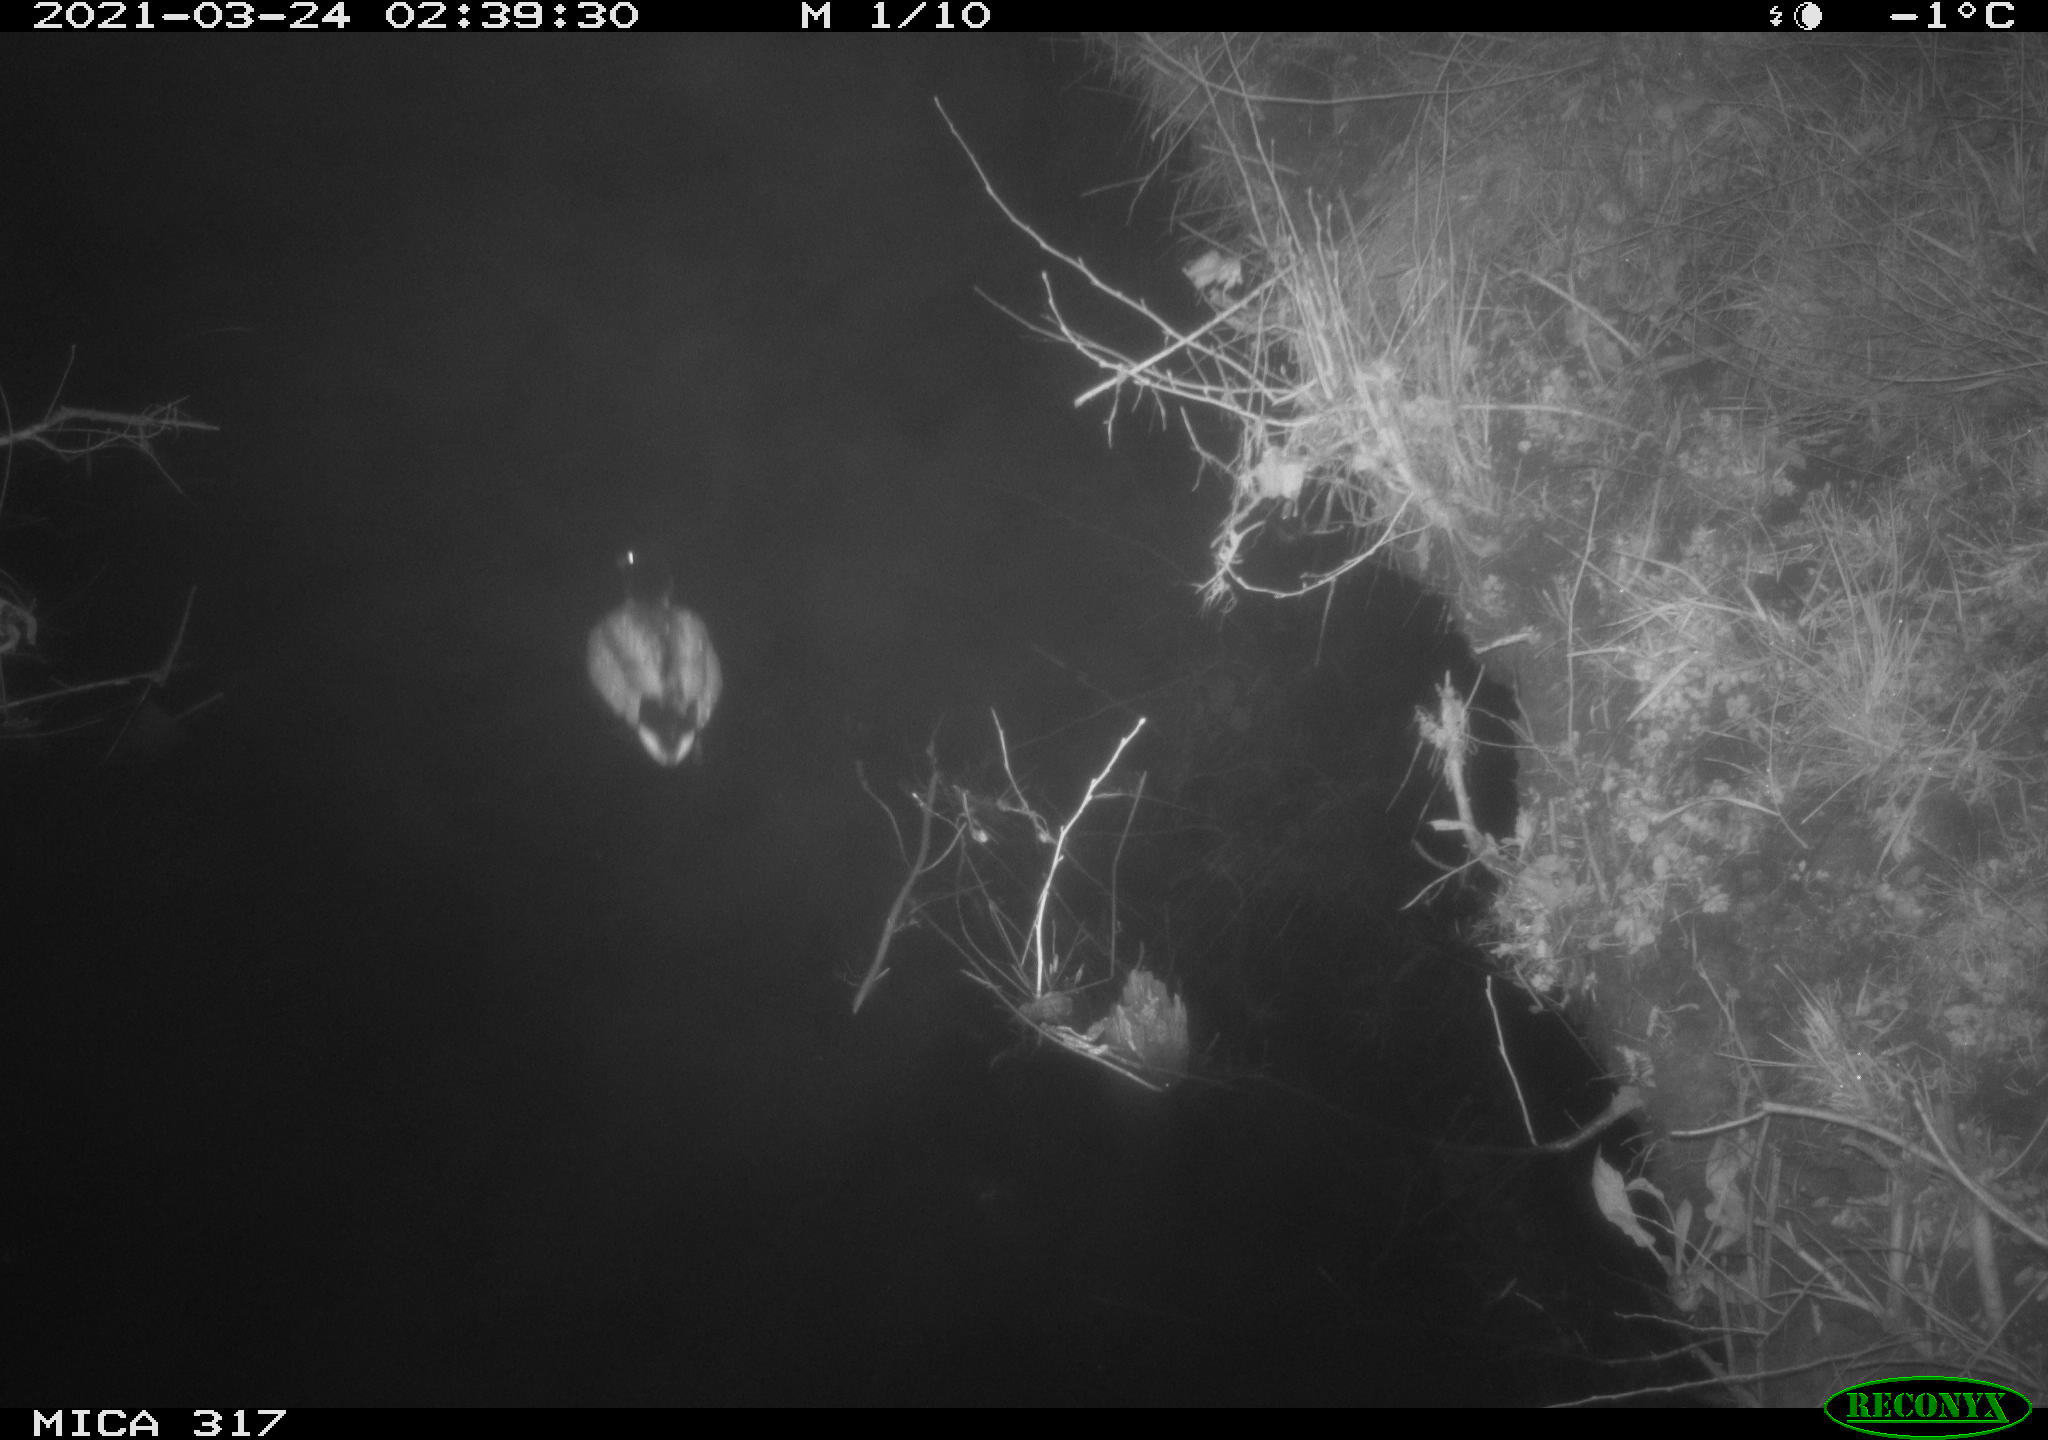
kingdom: Animalia
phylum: Chordata
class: Aves
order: Anseriformes
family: Anatidae
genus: Anas
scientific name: Anas platyrhynchos
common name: Mallard
